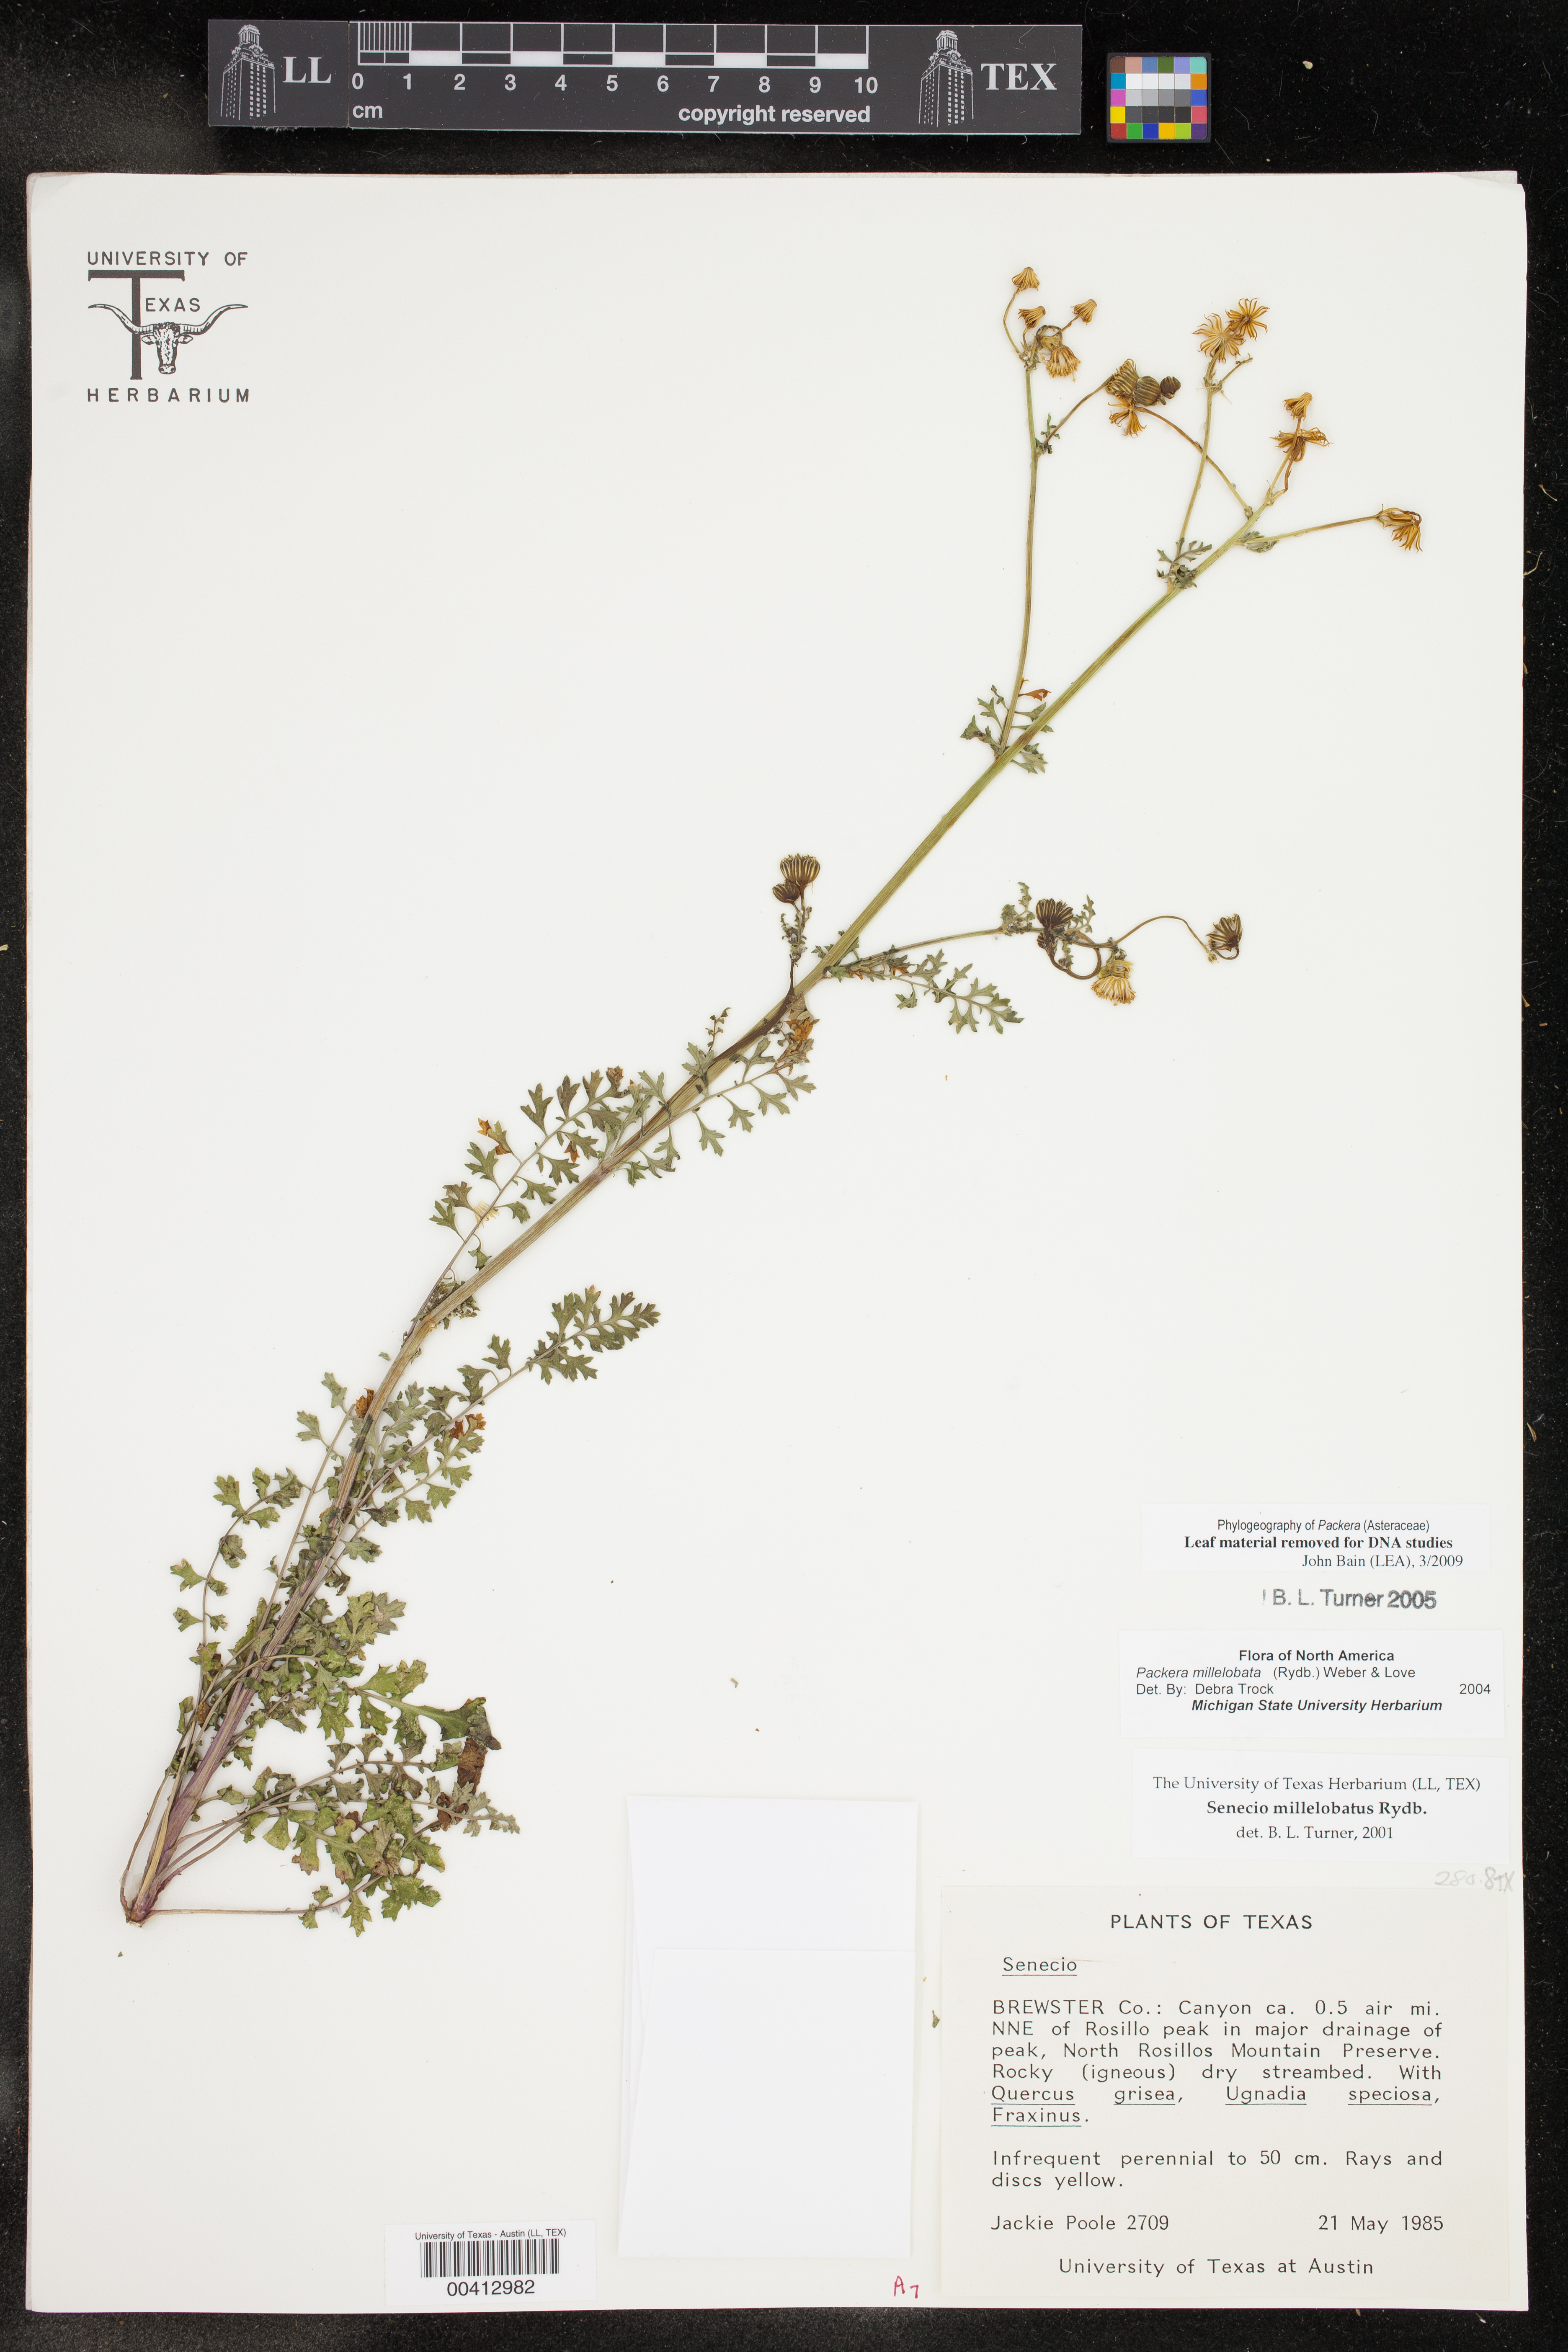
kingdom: Plantae
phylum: Tracheophyta
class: Magnoliopsida
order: Asterales
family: Asteraceae
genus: Packera
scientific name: Packera millelobata
